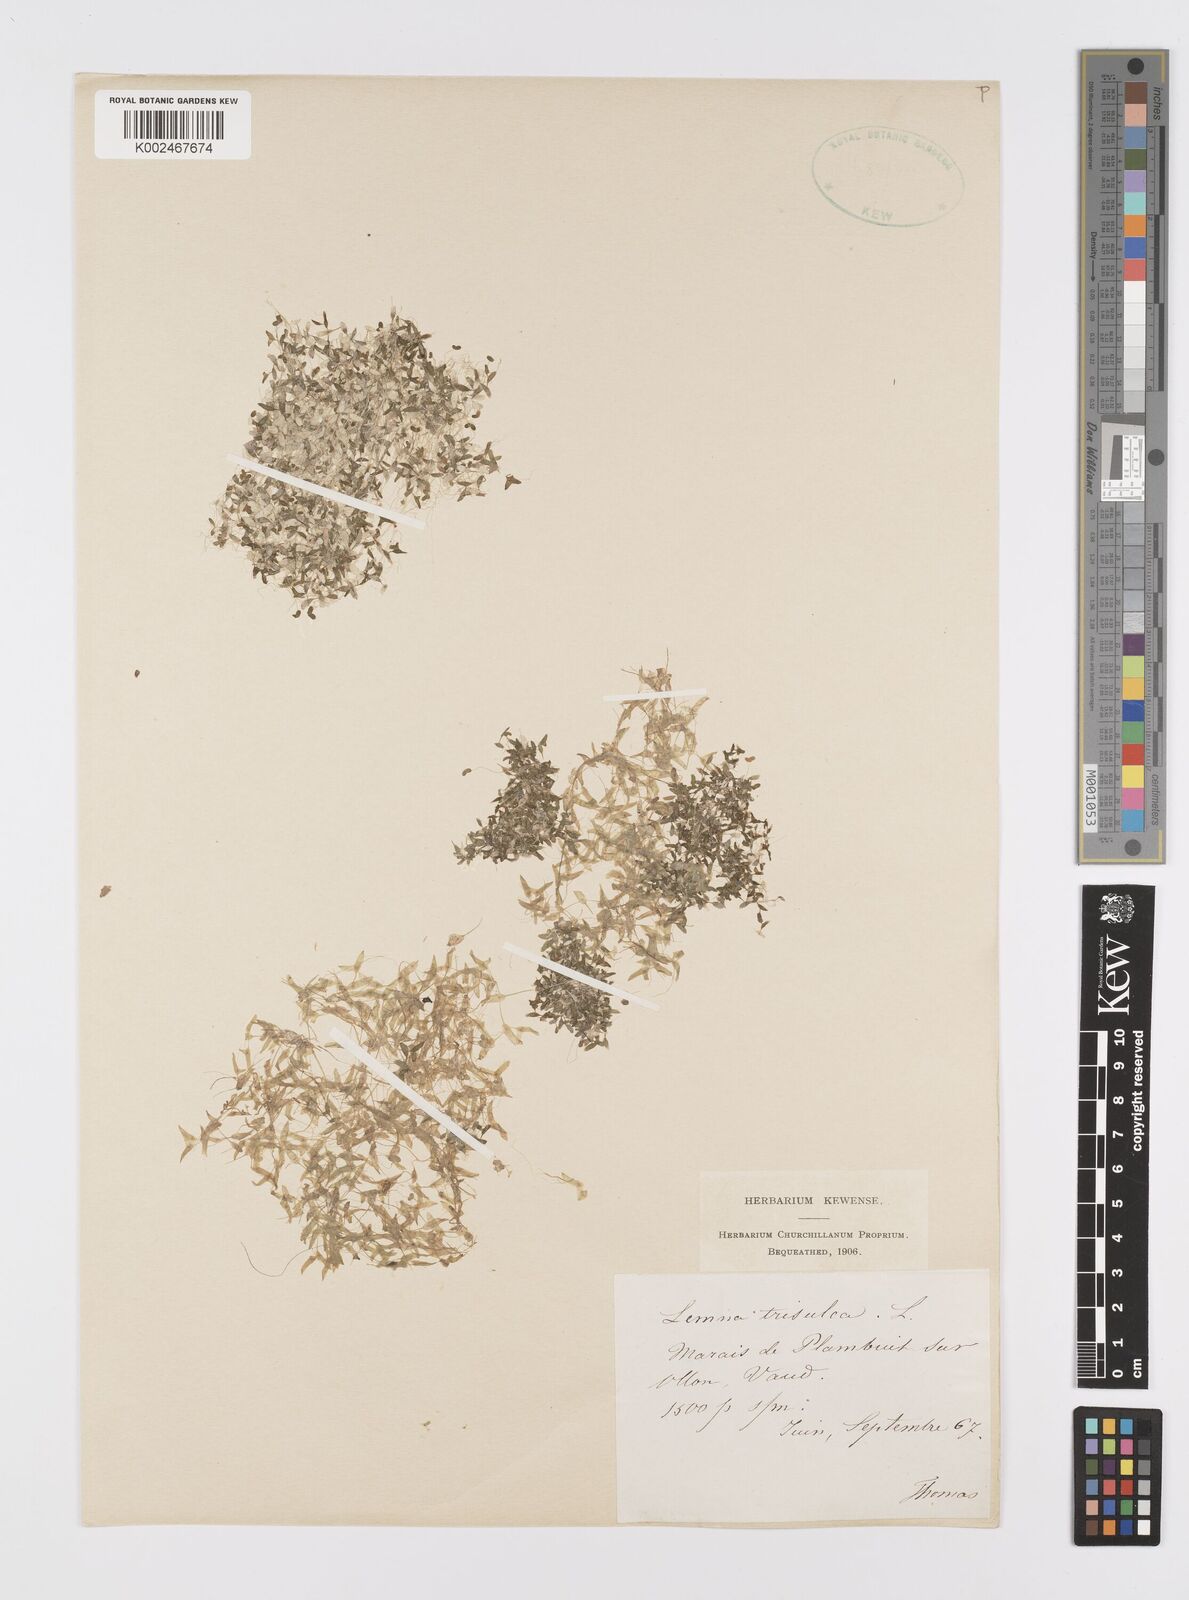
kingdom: Plantae
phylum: Tracheophyta
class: Liliopsida
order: Alismatales
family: Araceae
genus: Lemna
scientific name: Lemna trisulca
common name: Ivy-leaved duckweed
